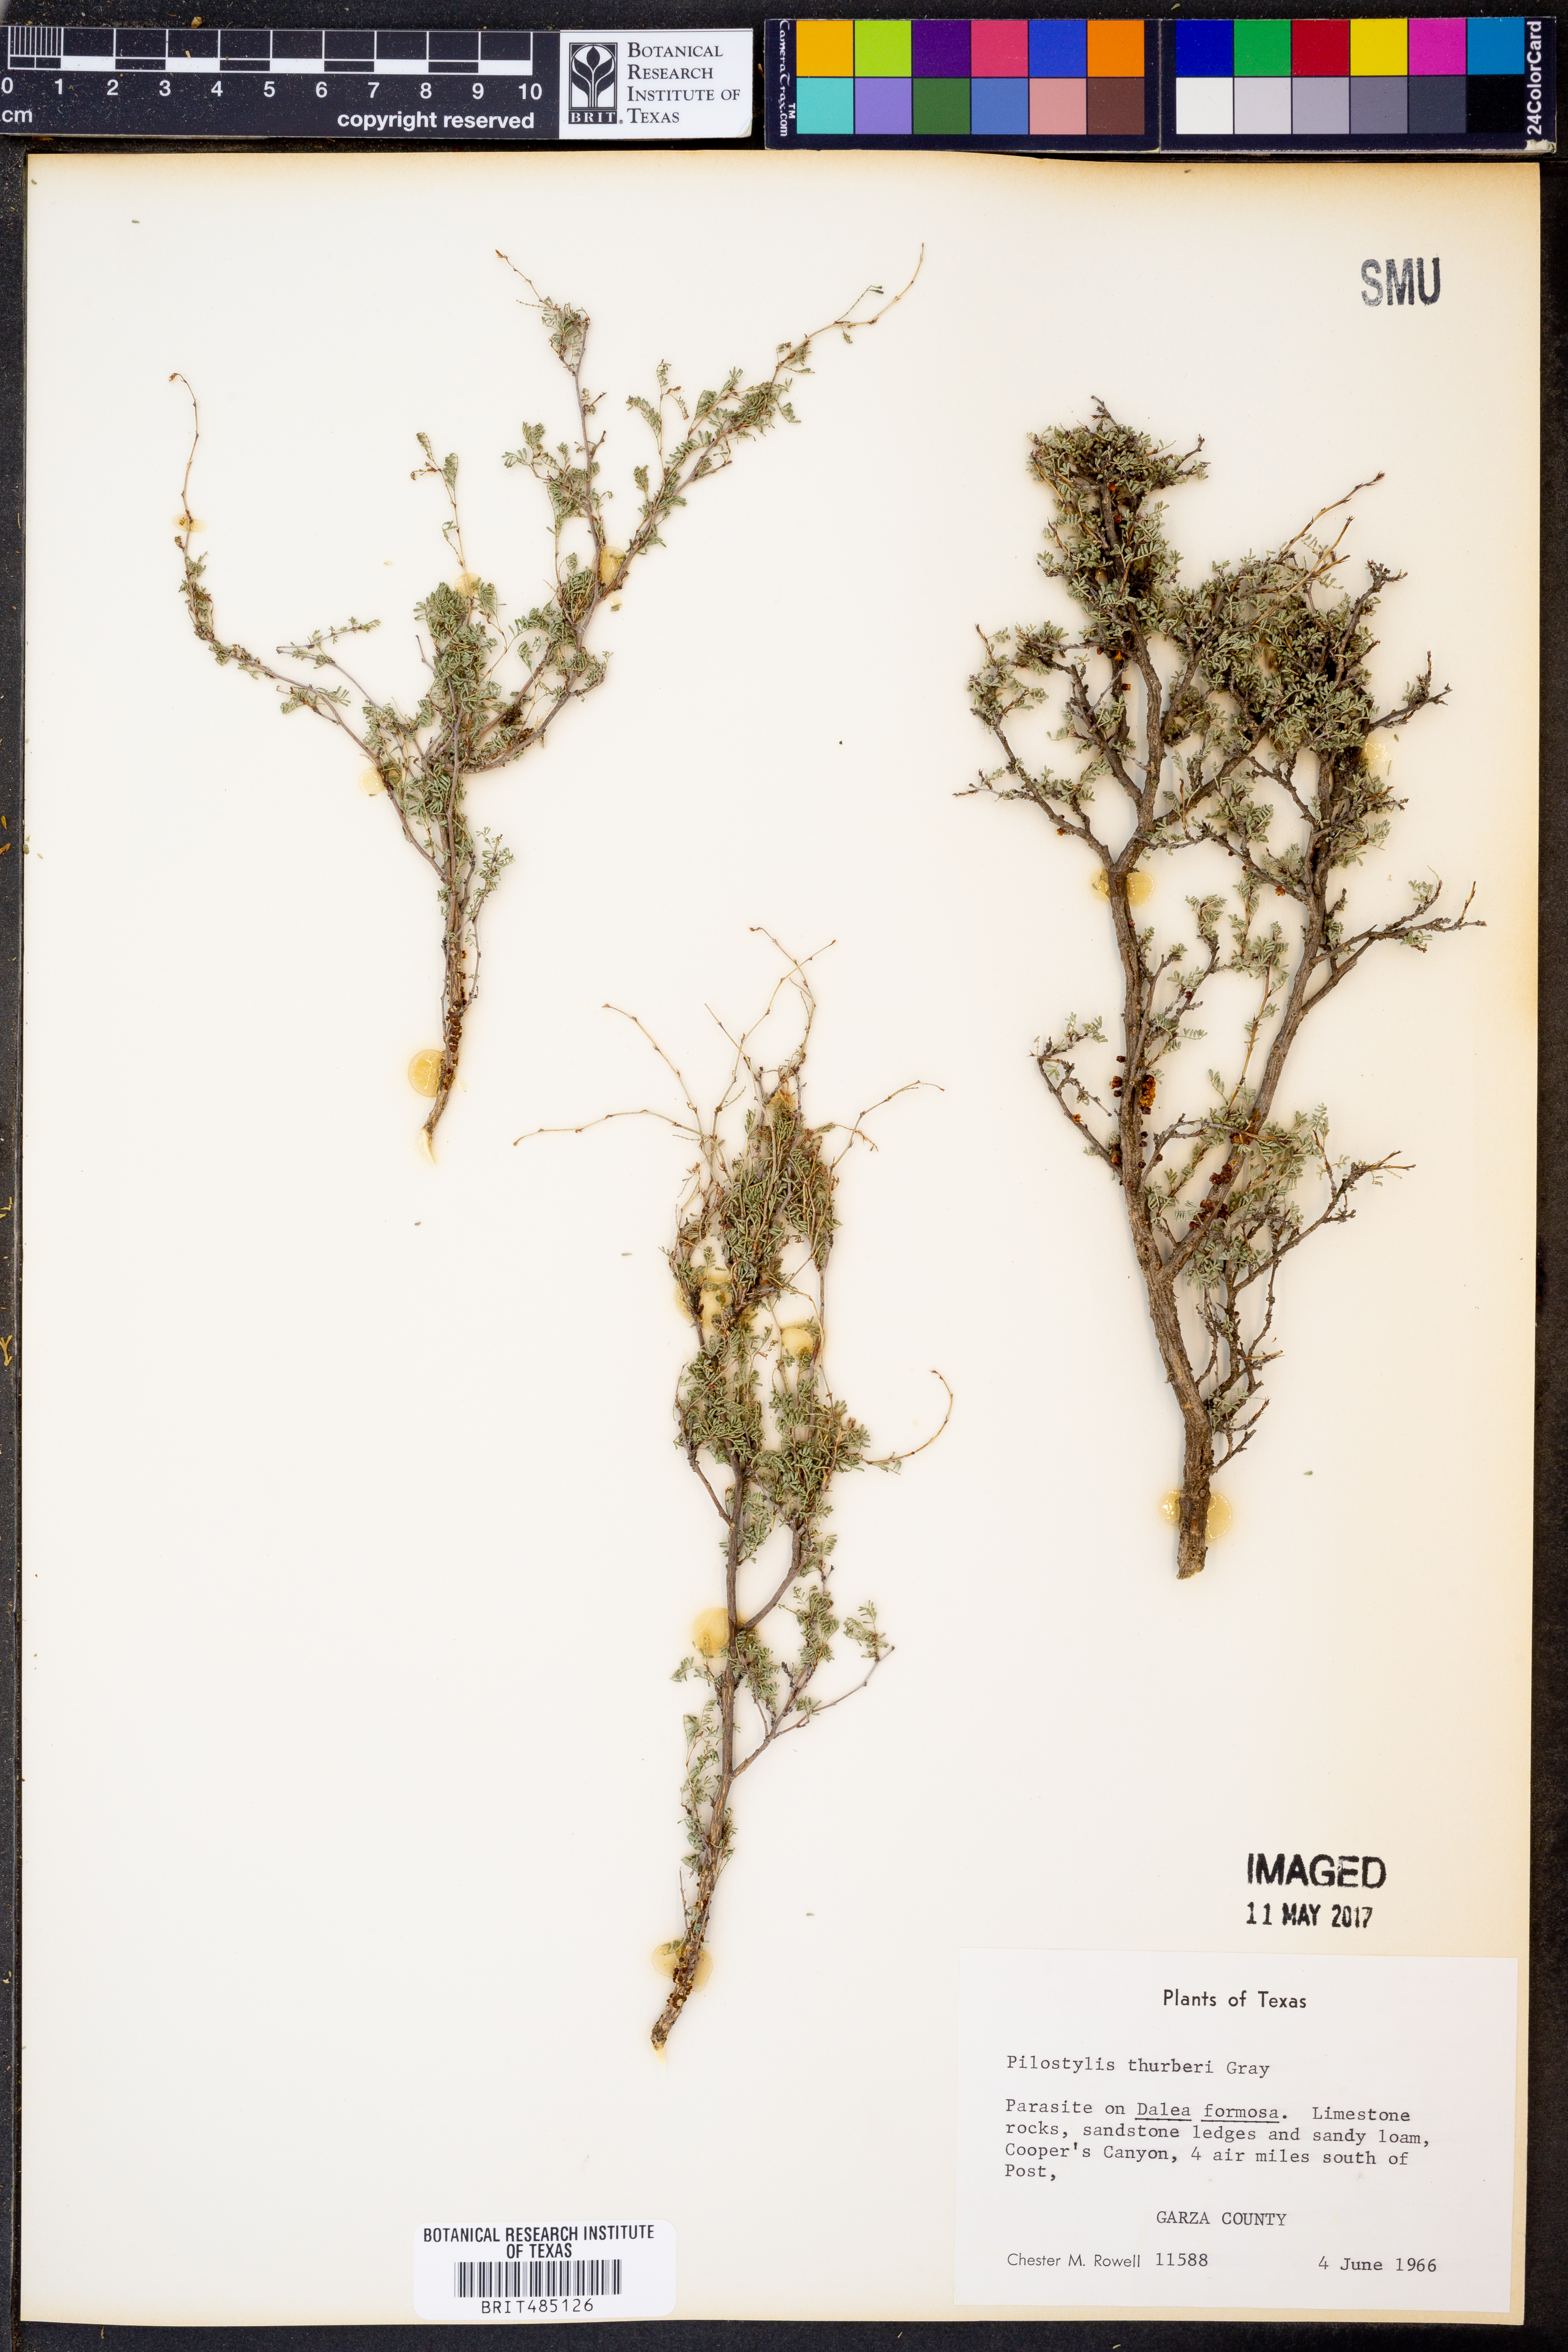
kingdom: Plantae
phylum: Tracheophyta
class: Magnoliopsida
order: Cucurbitales
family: Apodanthaceae
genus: Pilostyles
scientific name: Pilostyles thurberi
